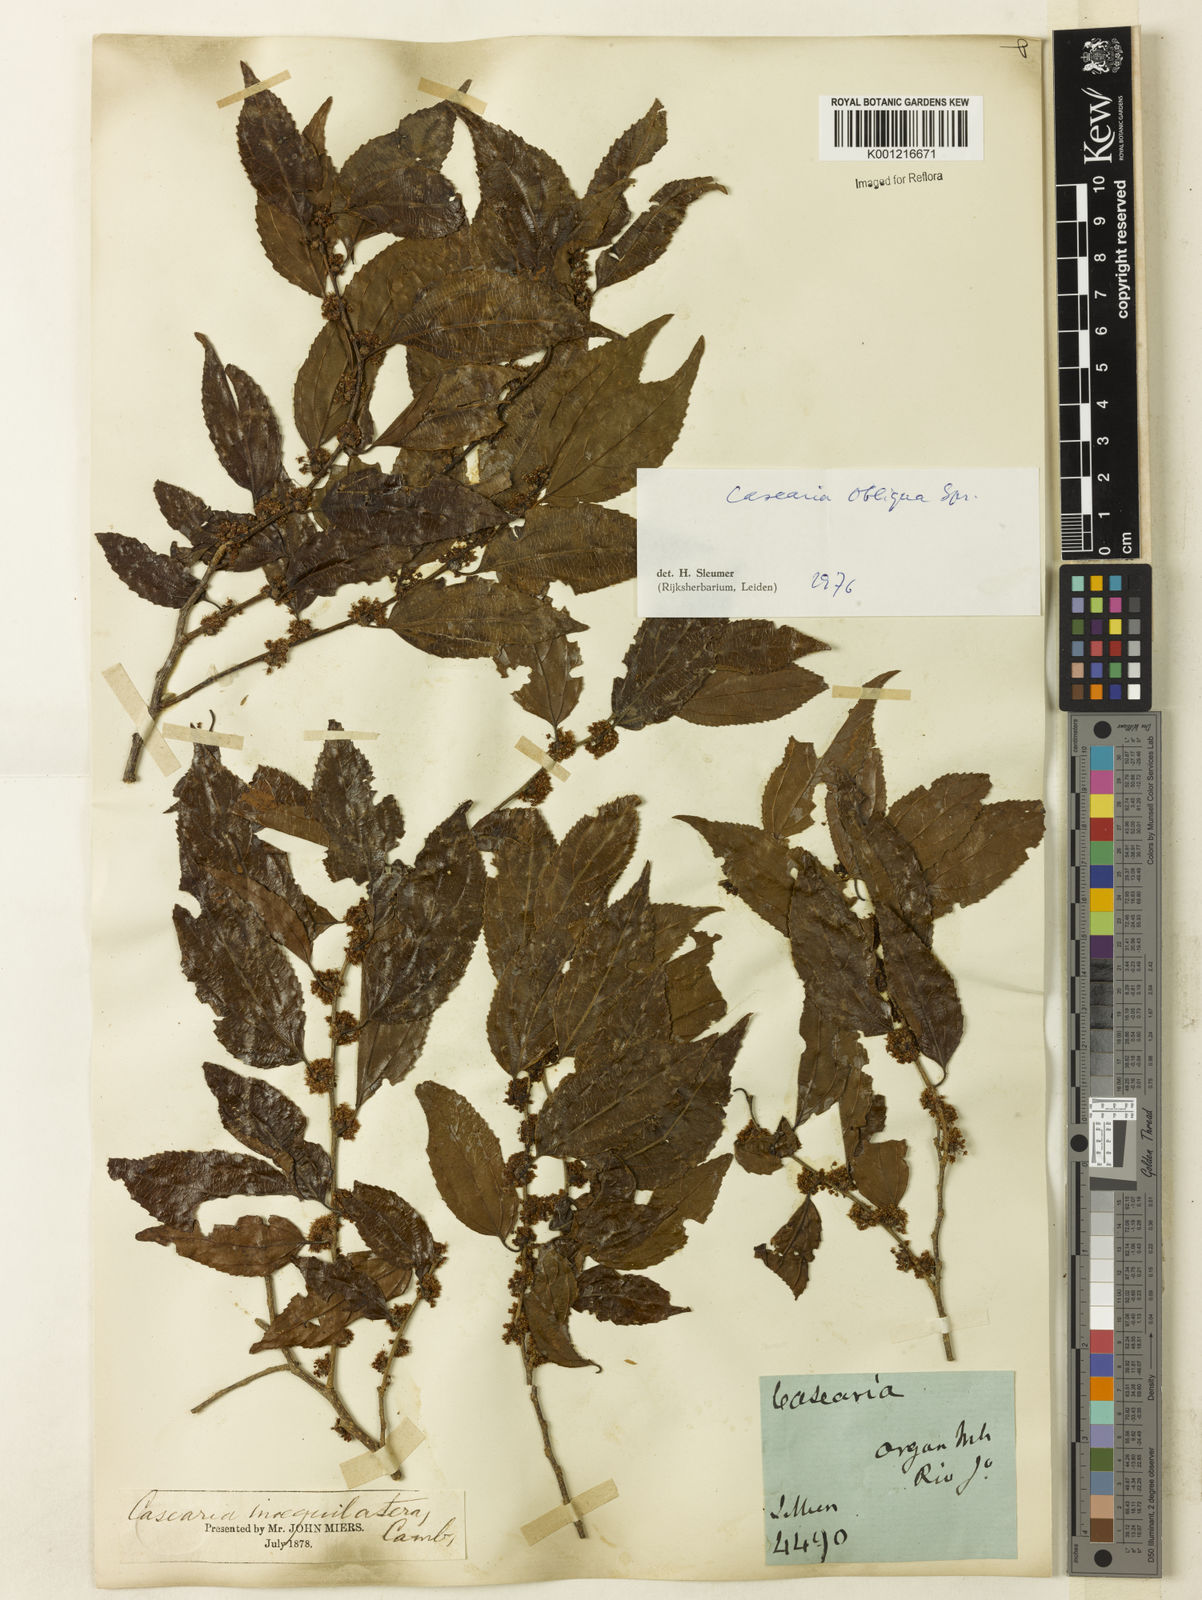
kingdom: Plantae
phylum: Tracheophyta
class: Magnoliopsida
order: Malpighiales
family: Salicaceae
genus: Casearia
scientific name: Casearia obliqua
